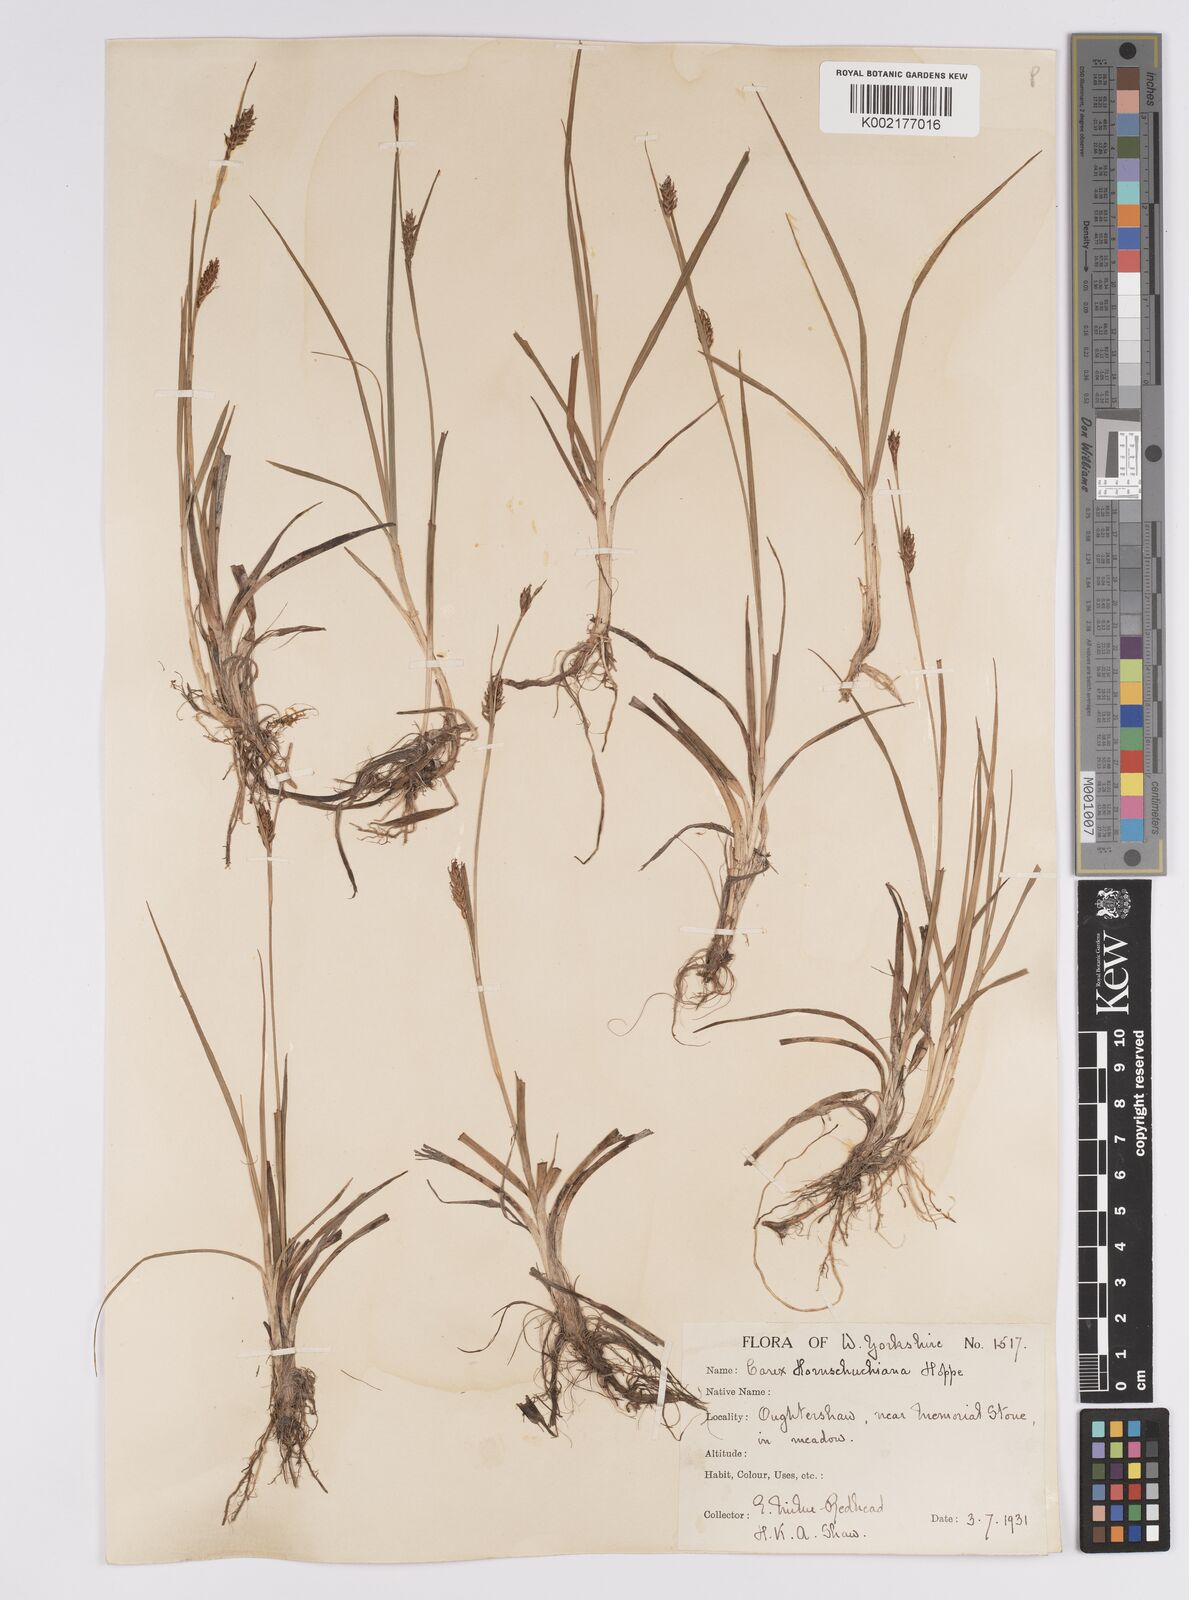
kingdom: Plantae
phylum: Tracheophyta
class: Liliopsida
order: Poales
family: Cyperaceae
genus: Carex
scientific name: Carex hostiana
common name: Tawny sedge
